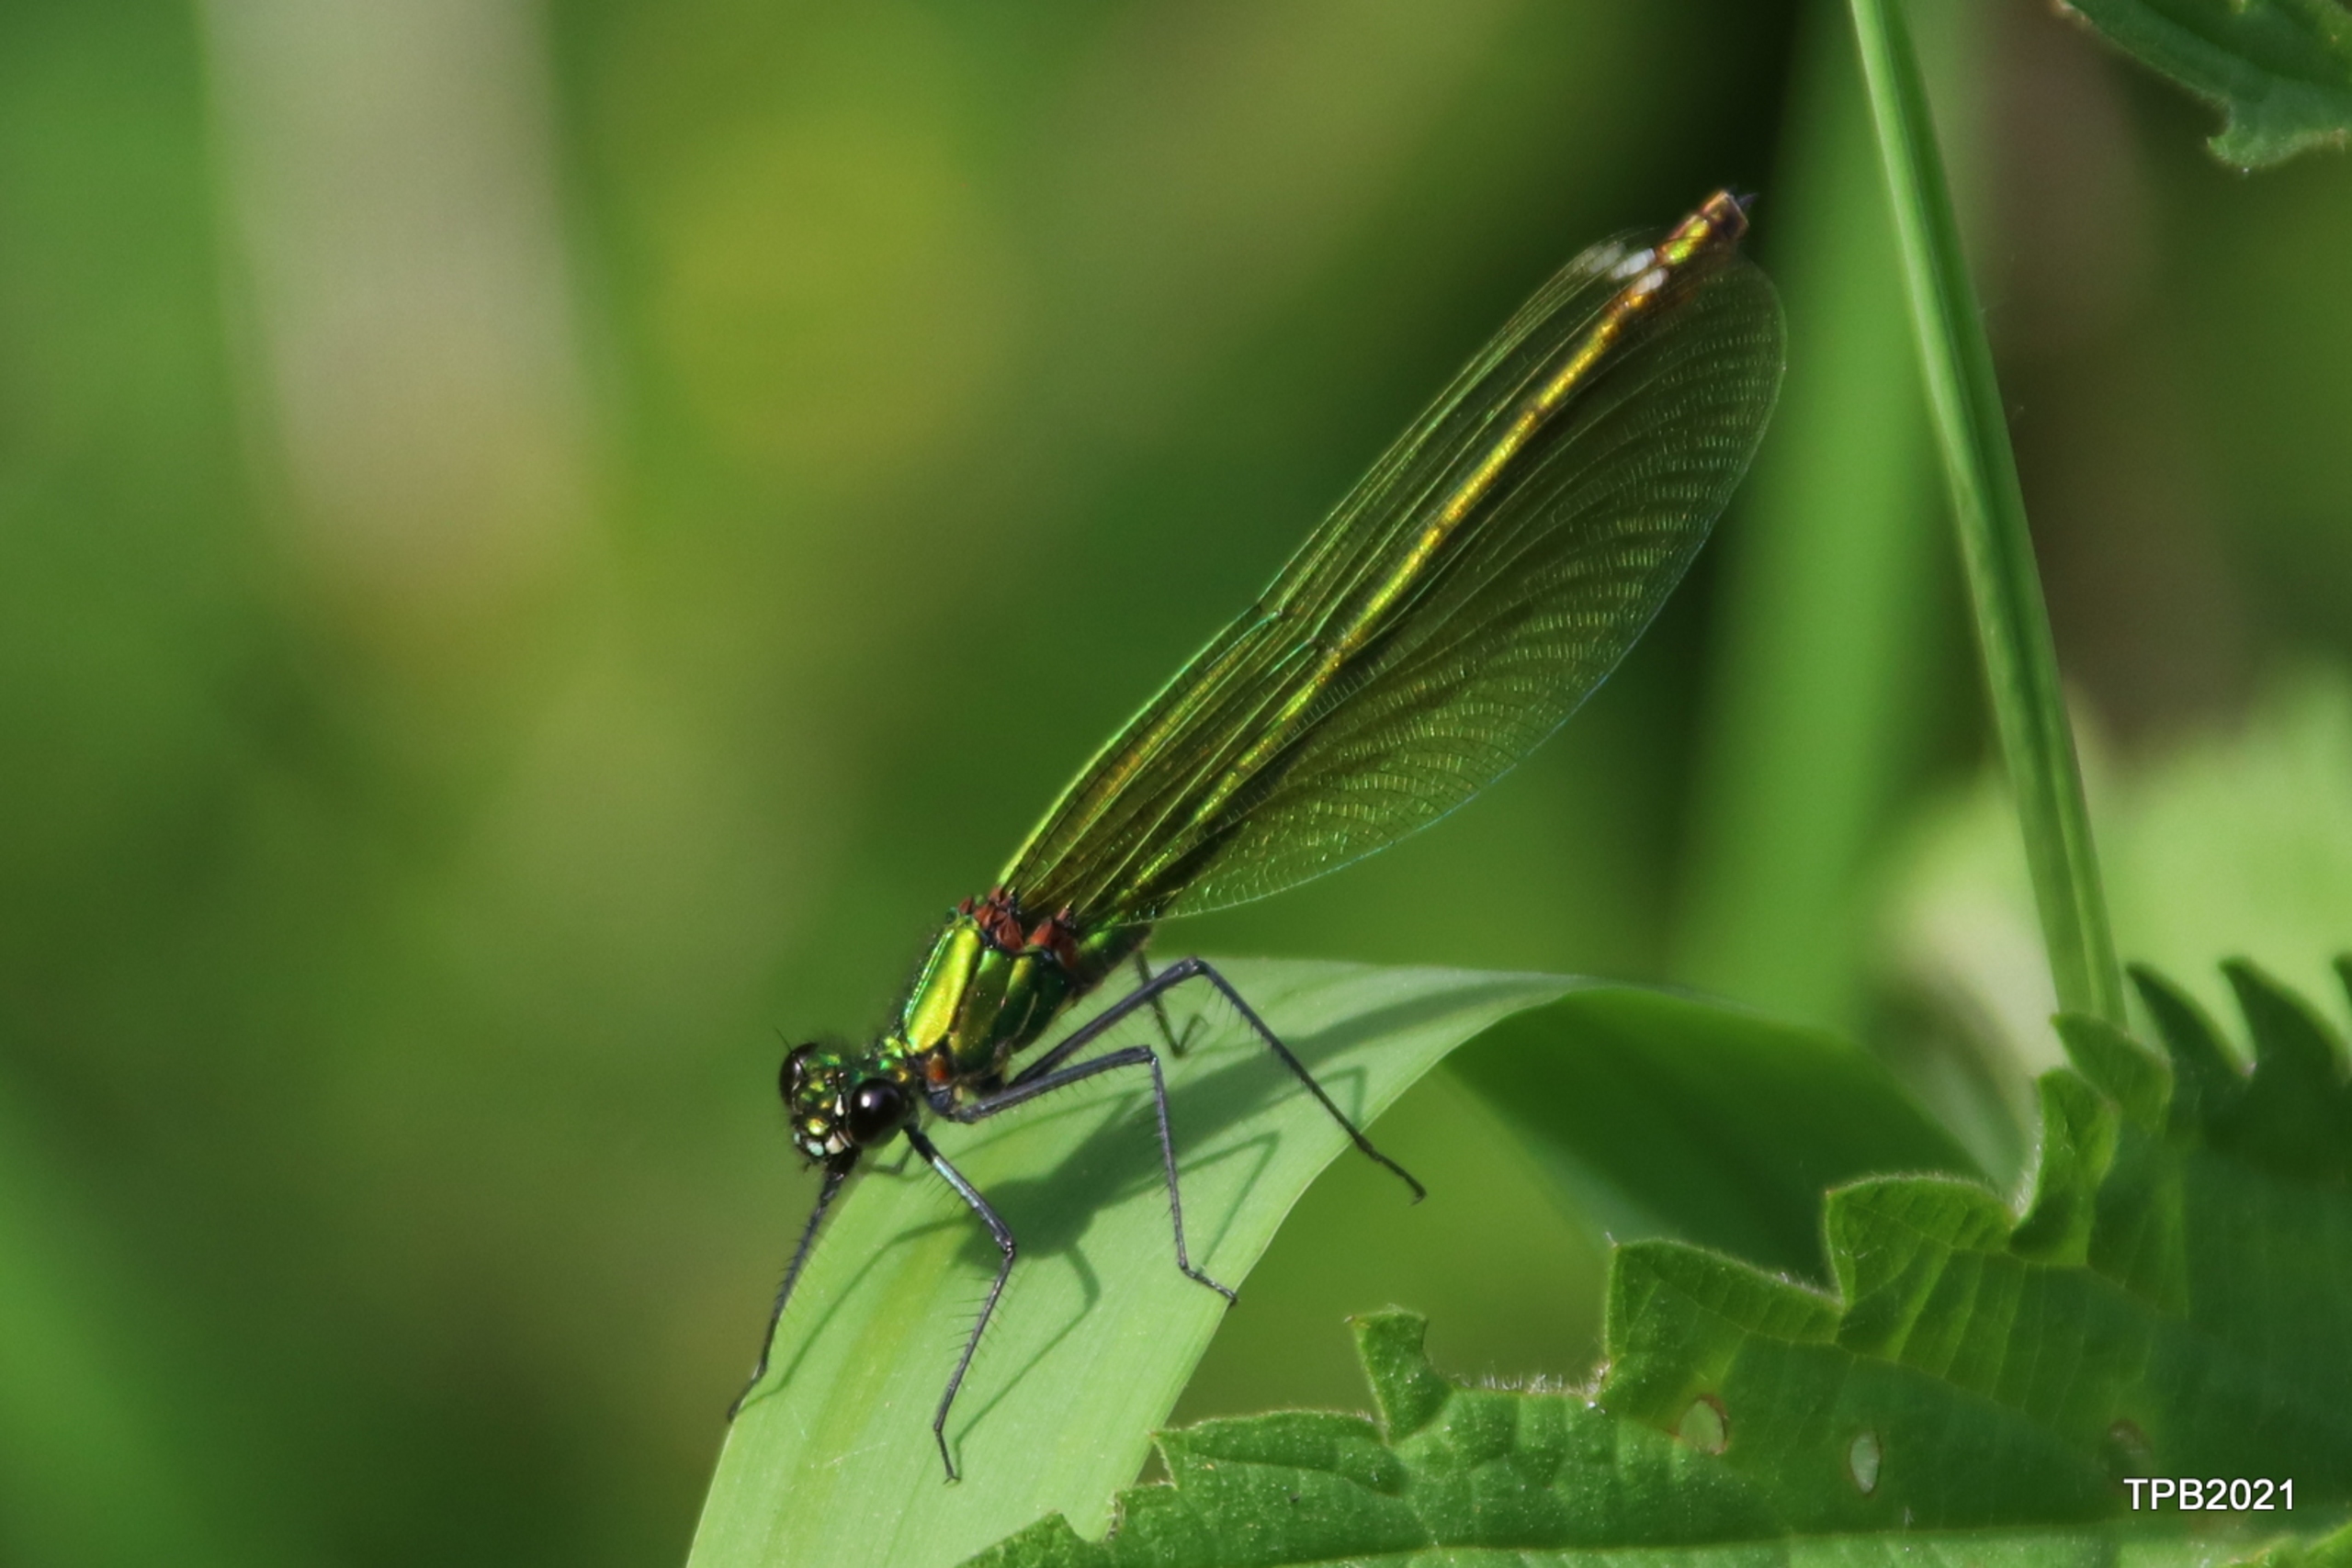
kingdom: Animalia
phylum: Arthropoda
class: Insecta
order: Odonata
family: Calopterygidae
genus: Calopteryx
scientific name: Calopteryx splendens
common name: Blåbåndet pragtvandnymfe
